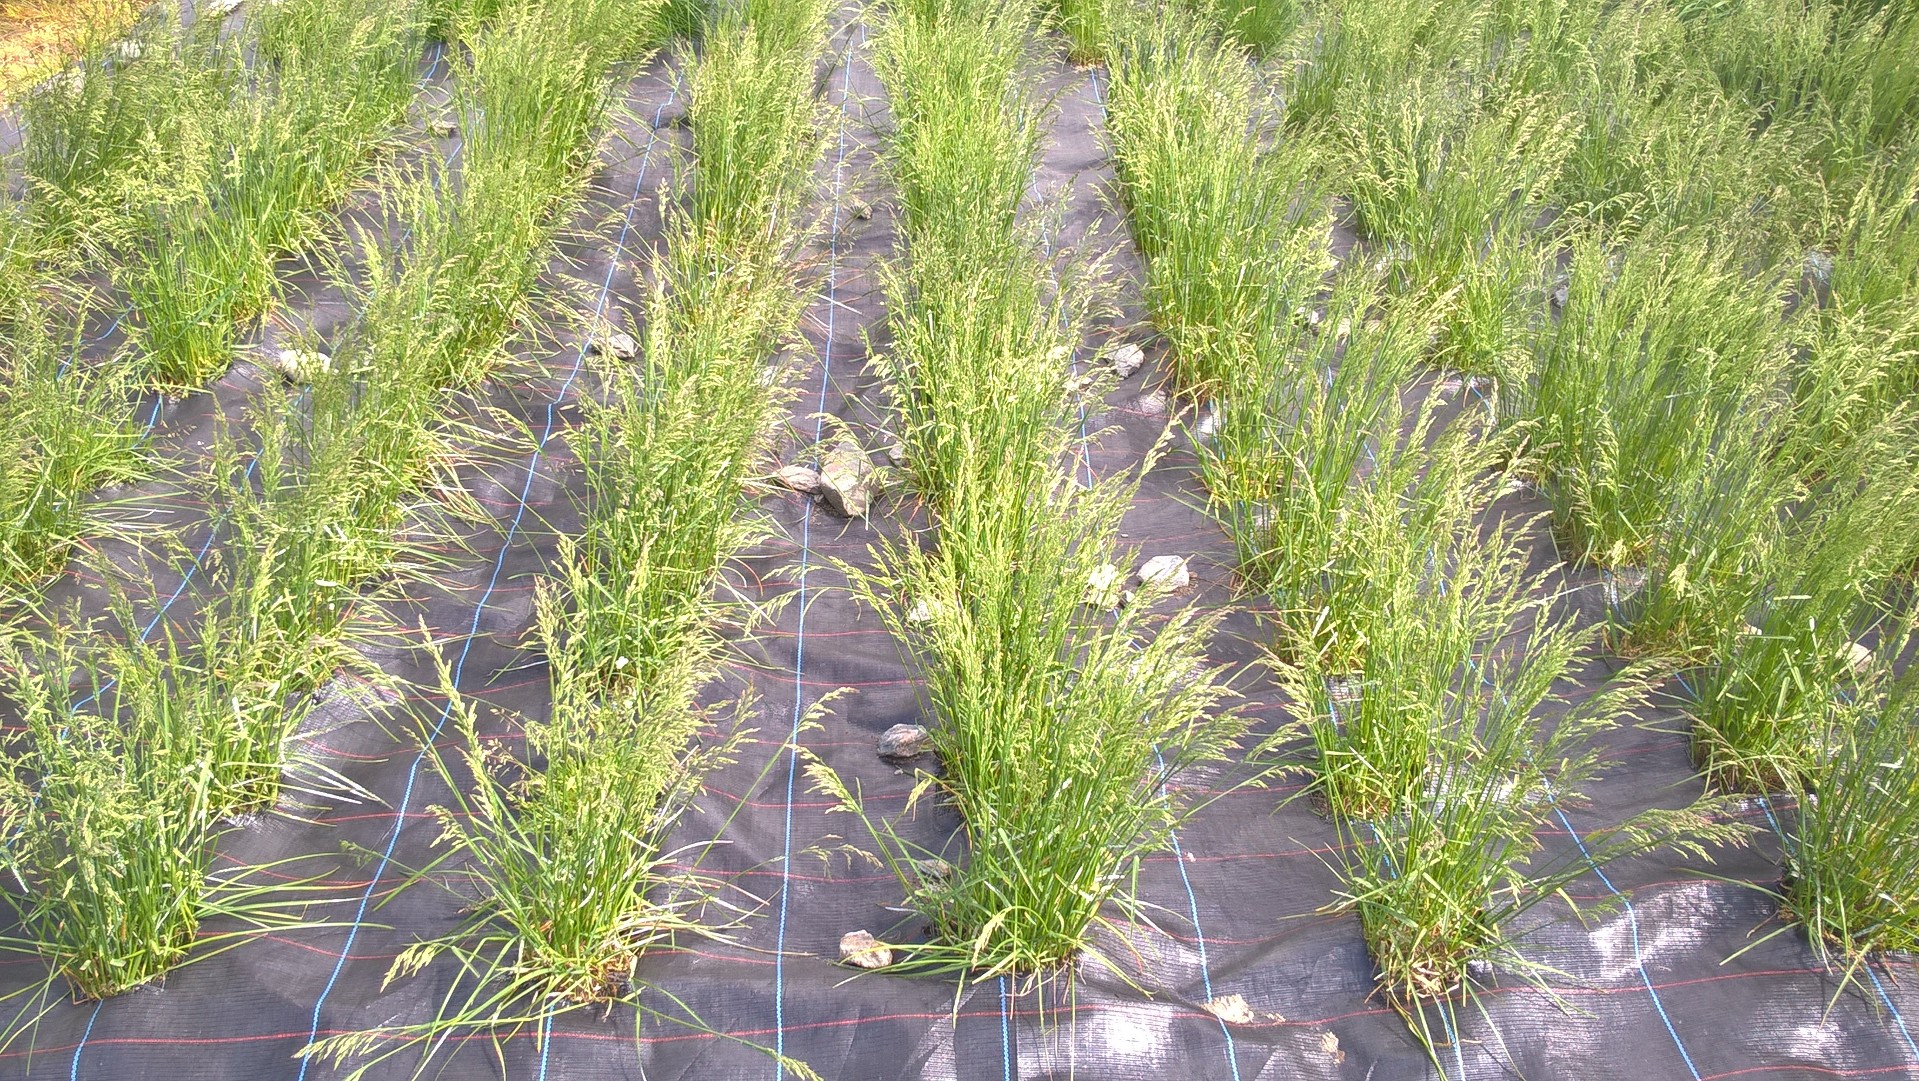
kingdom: Plantae
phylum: Tracheophyta
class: Liliopsida
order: Poales
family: Poaceae
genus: Poa
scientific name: Poa pratensis
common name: Kentucky bluegrass
